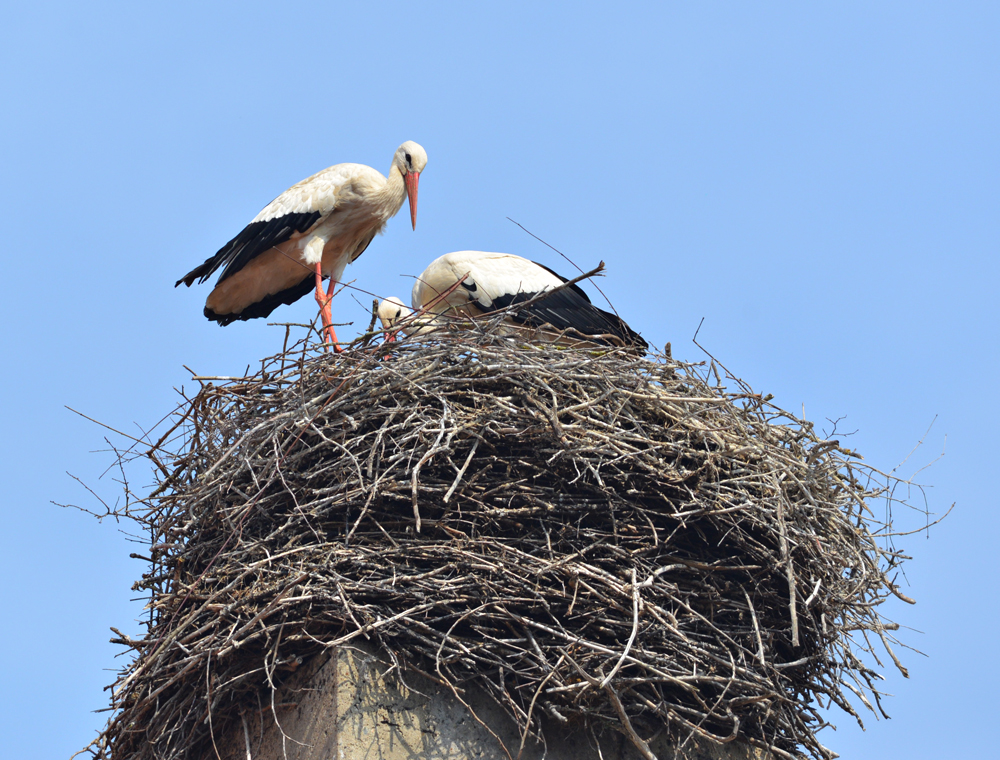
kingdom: Animalia
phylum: Chordata
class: Aves
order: Ciconiiformes
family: Ciconiidae
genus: Ciconia
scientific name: Ciconia ciconia
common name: White stork
